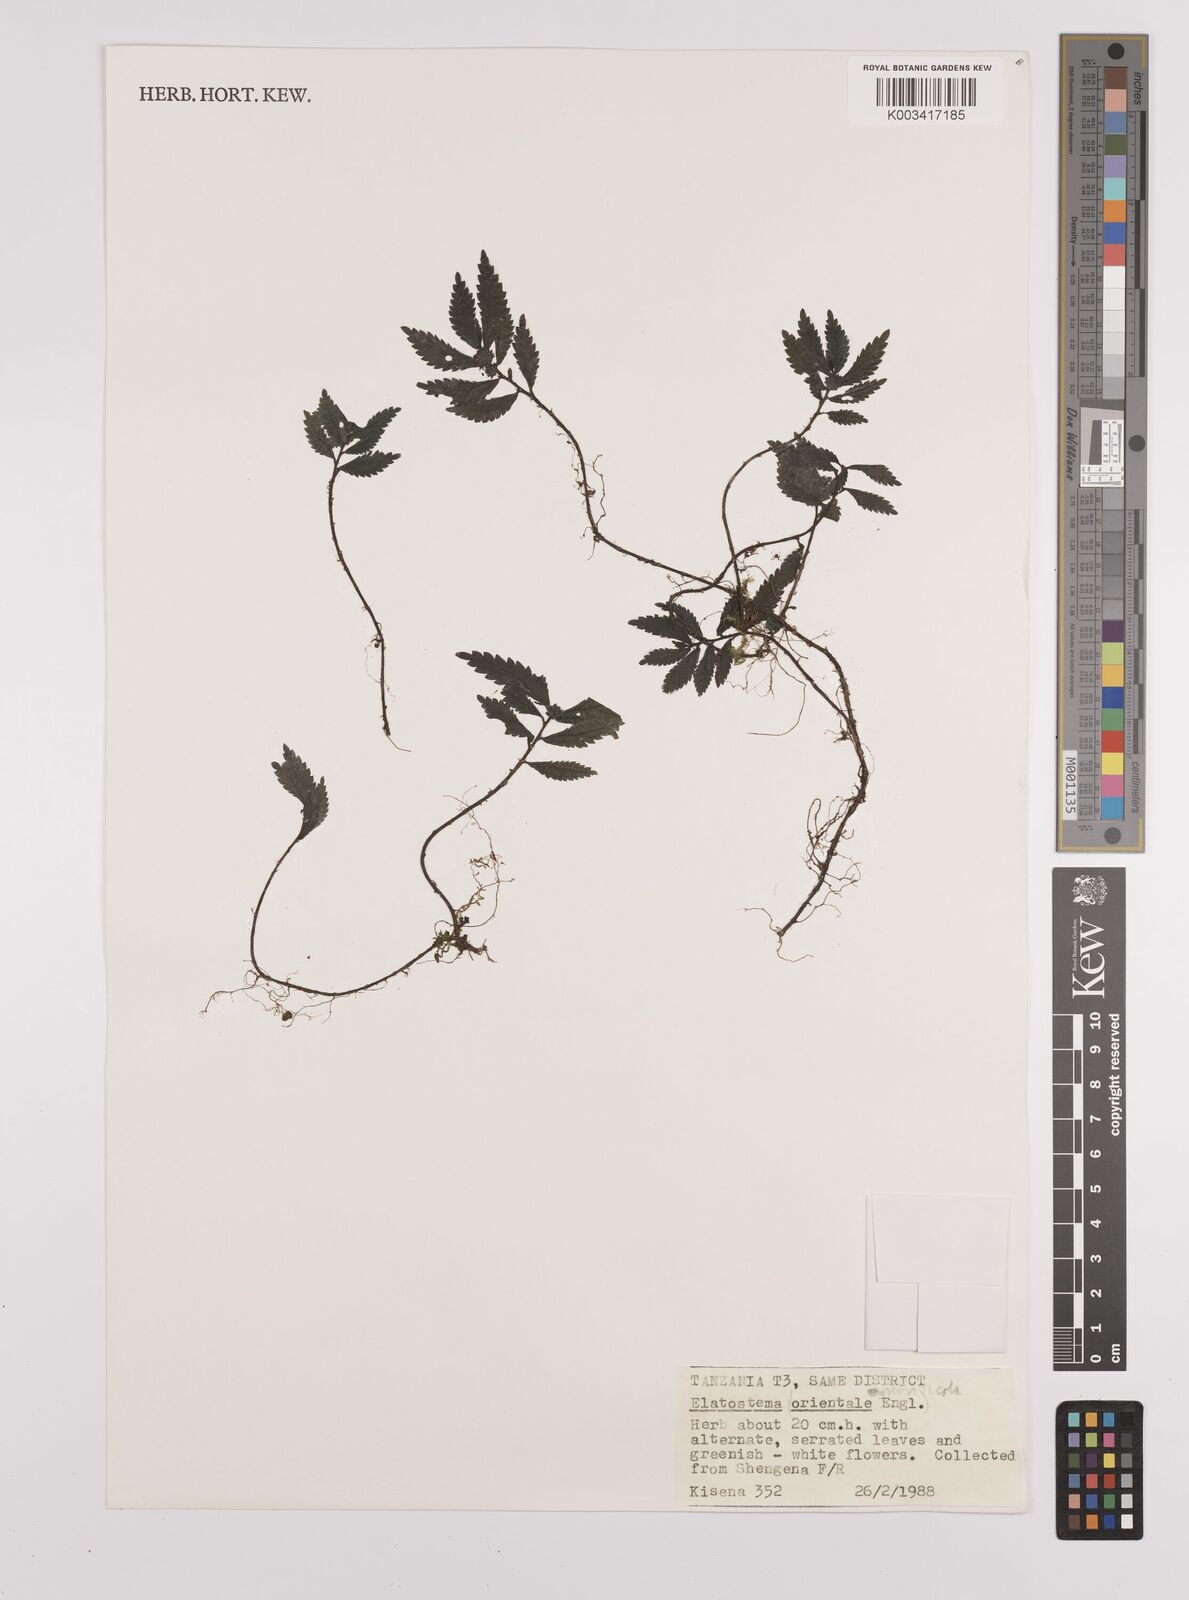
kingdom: Plantae
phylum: Tracheophyta
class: Magnoliopsida
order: Rosales
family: Urticaceae
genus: Elatostema
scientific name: Elatostema monticola
